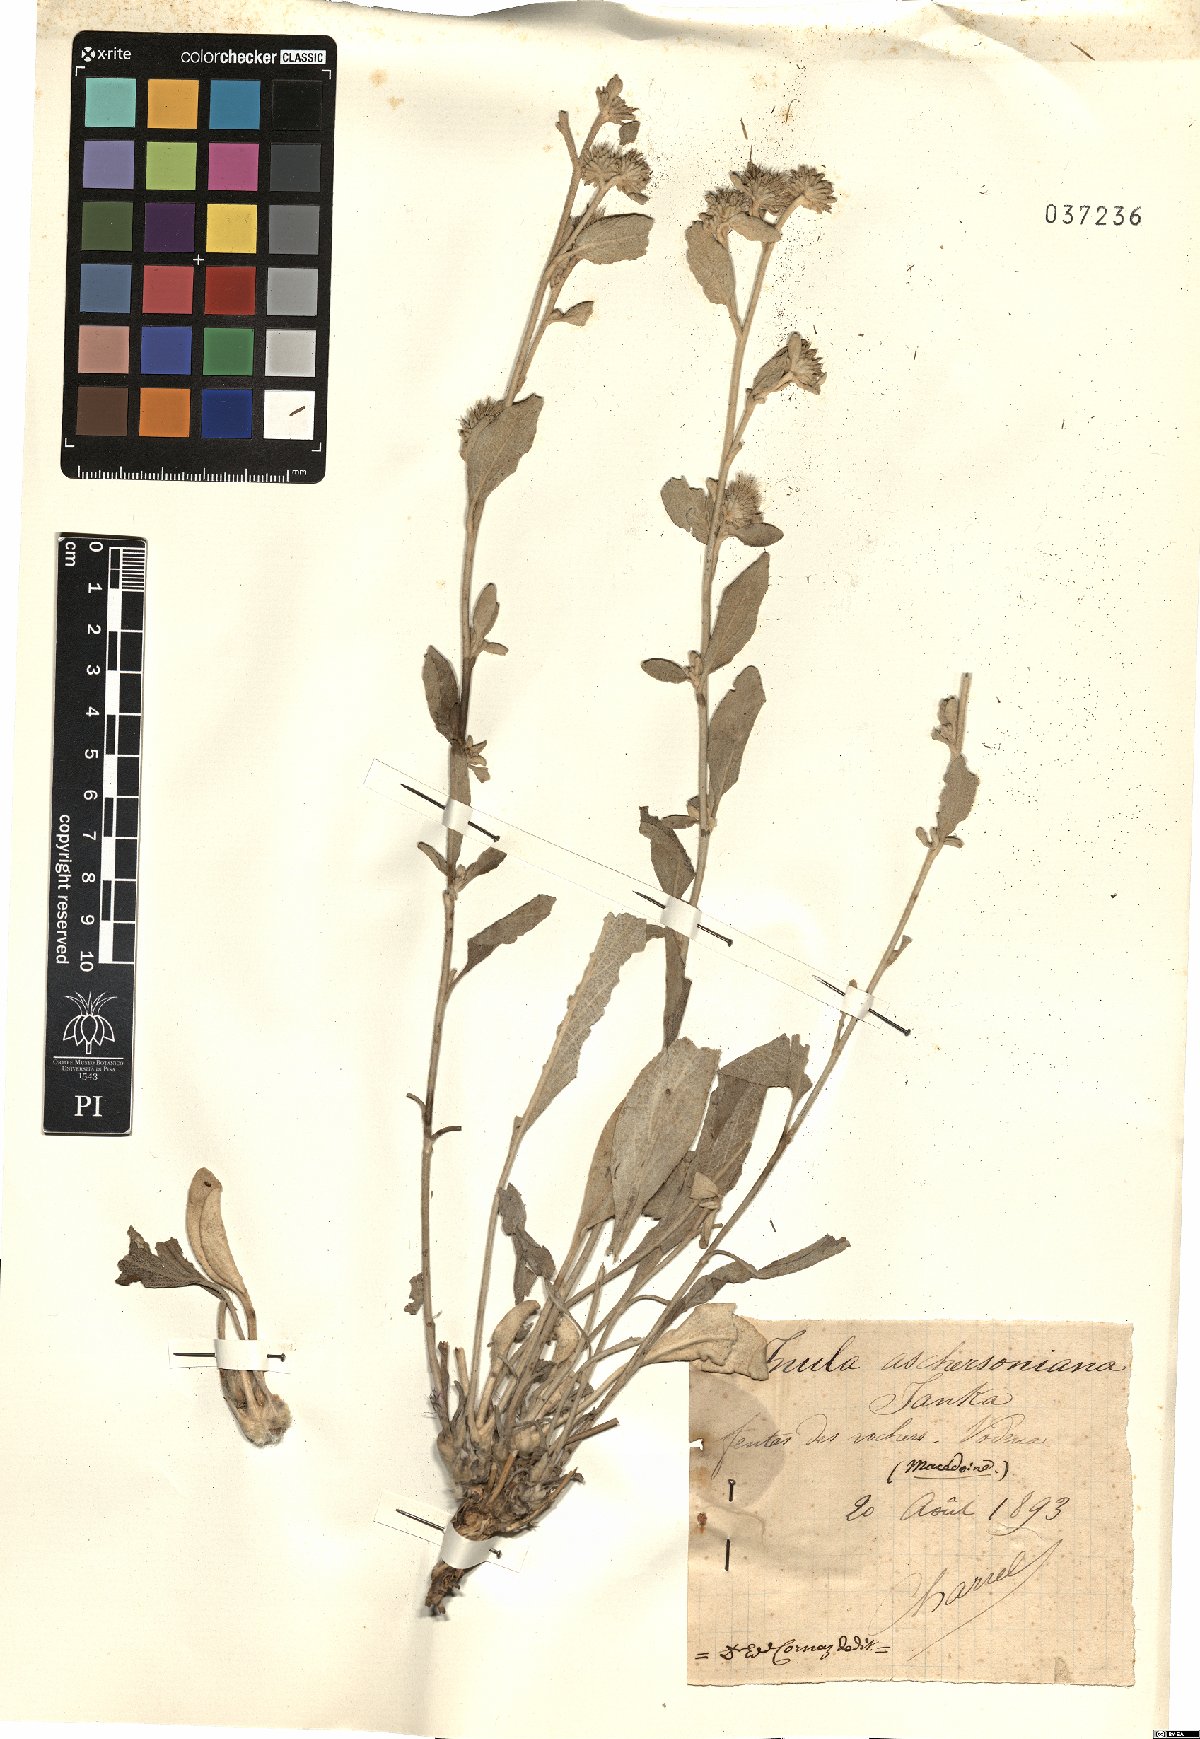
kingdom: Plantae
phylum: Tracheophyta
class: Magnoliopsida
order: Asterales
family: Asteraceae
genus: Pentanema
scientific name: Pentanema aschersonianum
